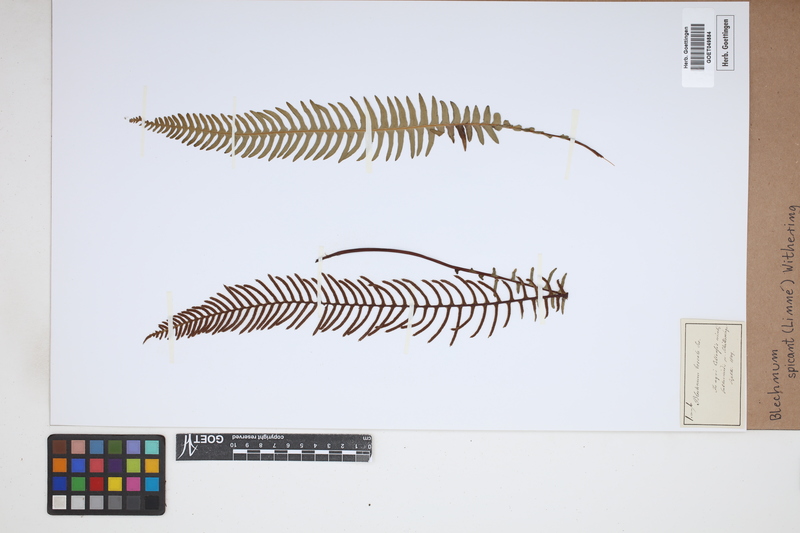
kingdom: Plantae
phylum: Tracheophyta
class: Polypodiopsida
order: Polypodiales
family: Blechnaceae
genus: Struthiopteris
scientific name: Struthiopteris spicant
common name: Deer fern
